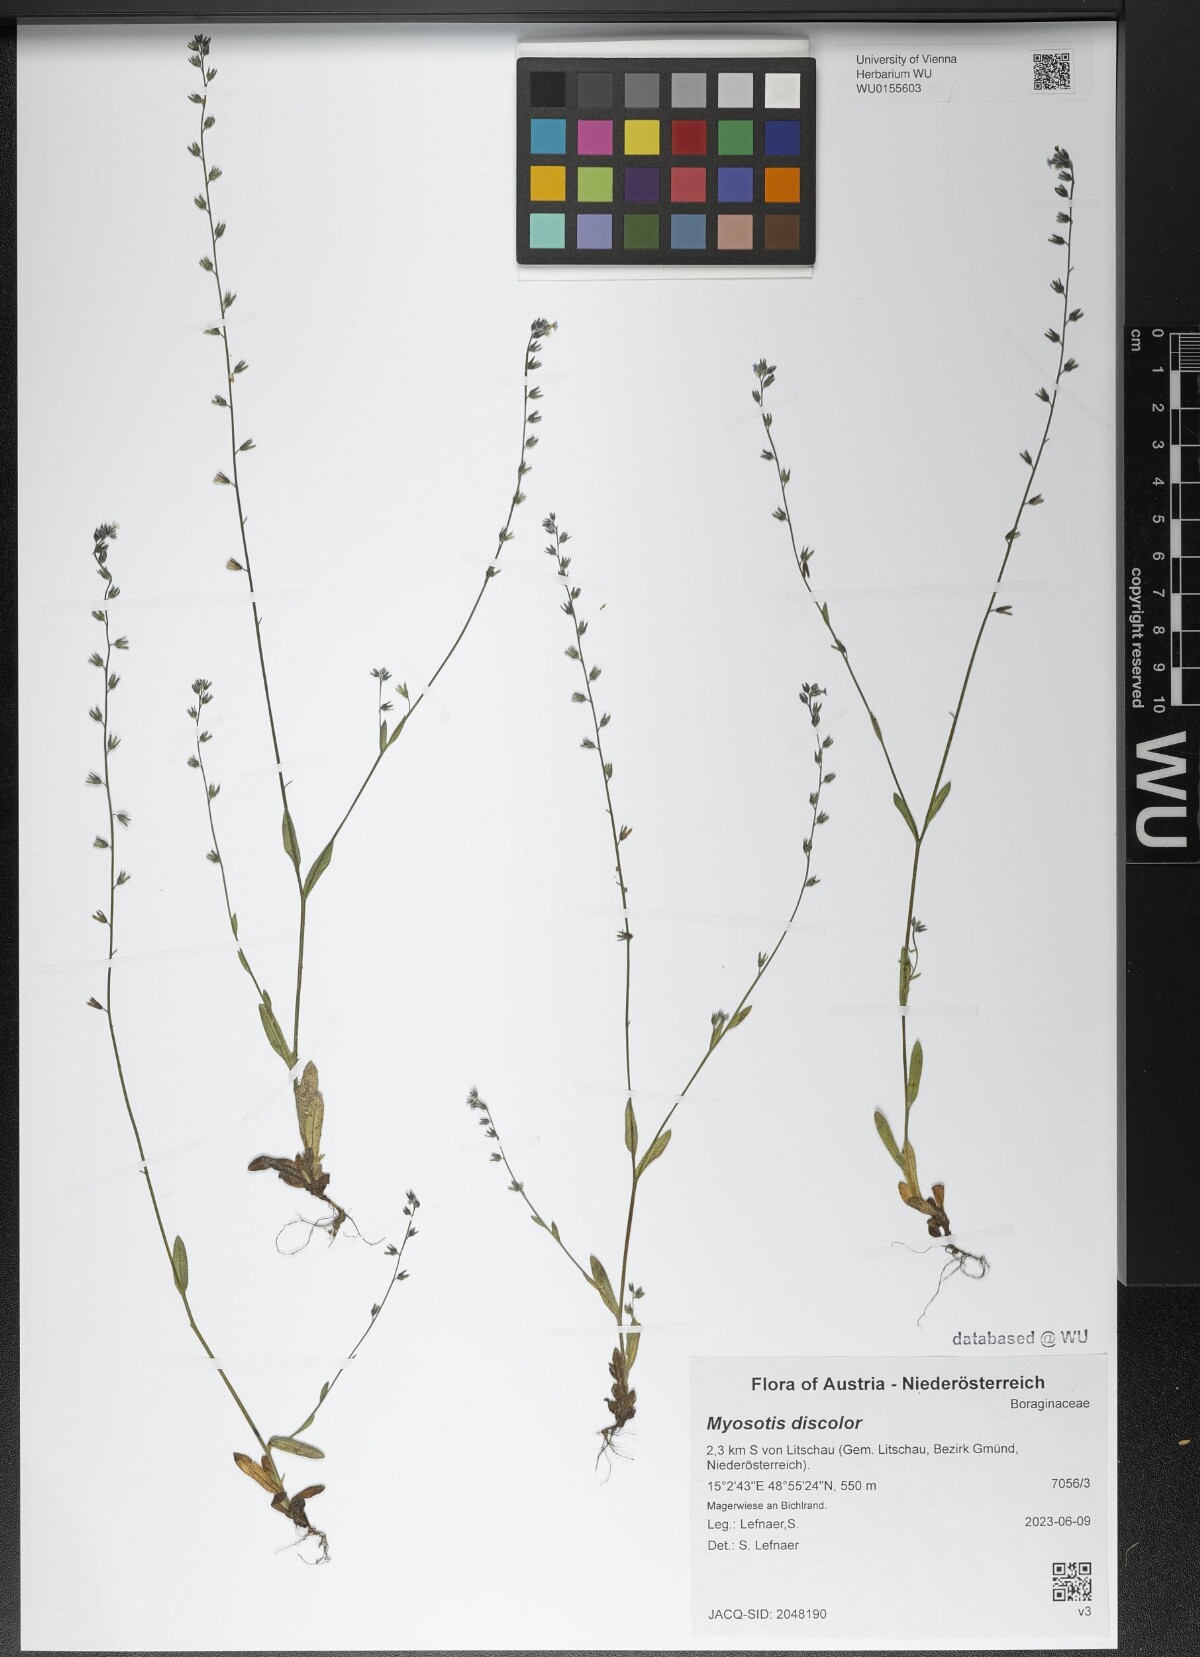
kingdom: Plantae
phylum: Tracheophyta
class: Magnoliopsida
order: Boraginales
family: Boraginaceae
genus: Myosotis
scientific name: Myosotis discolor
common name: Changing forget-me-not
